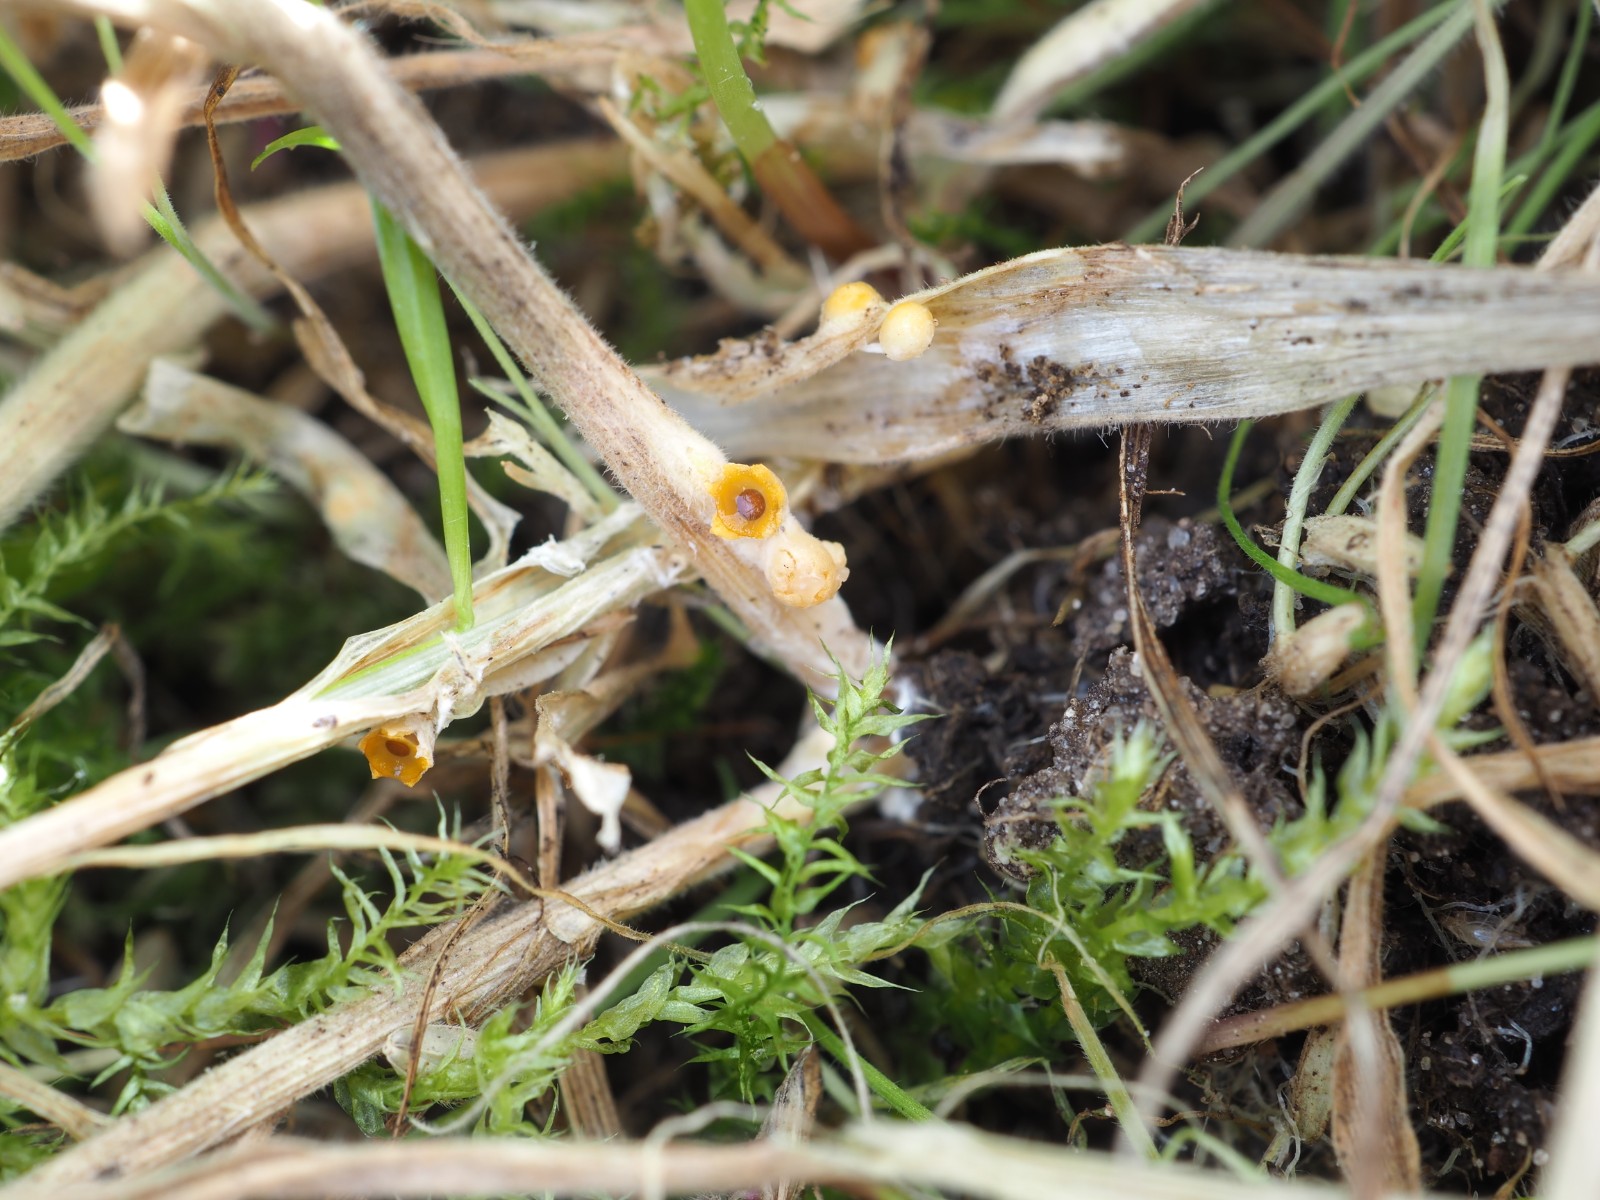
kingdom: Fungi
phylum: Basidiomycota
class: Agaricomycetes
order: Geastrales
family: Geastraceae
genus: Sphaerobolus
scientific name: Sphaerobolus stellatus
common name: bombekaster
